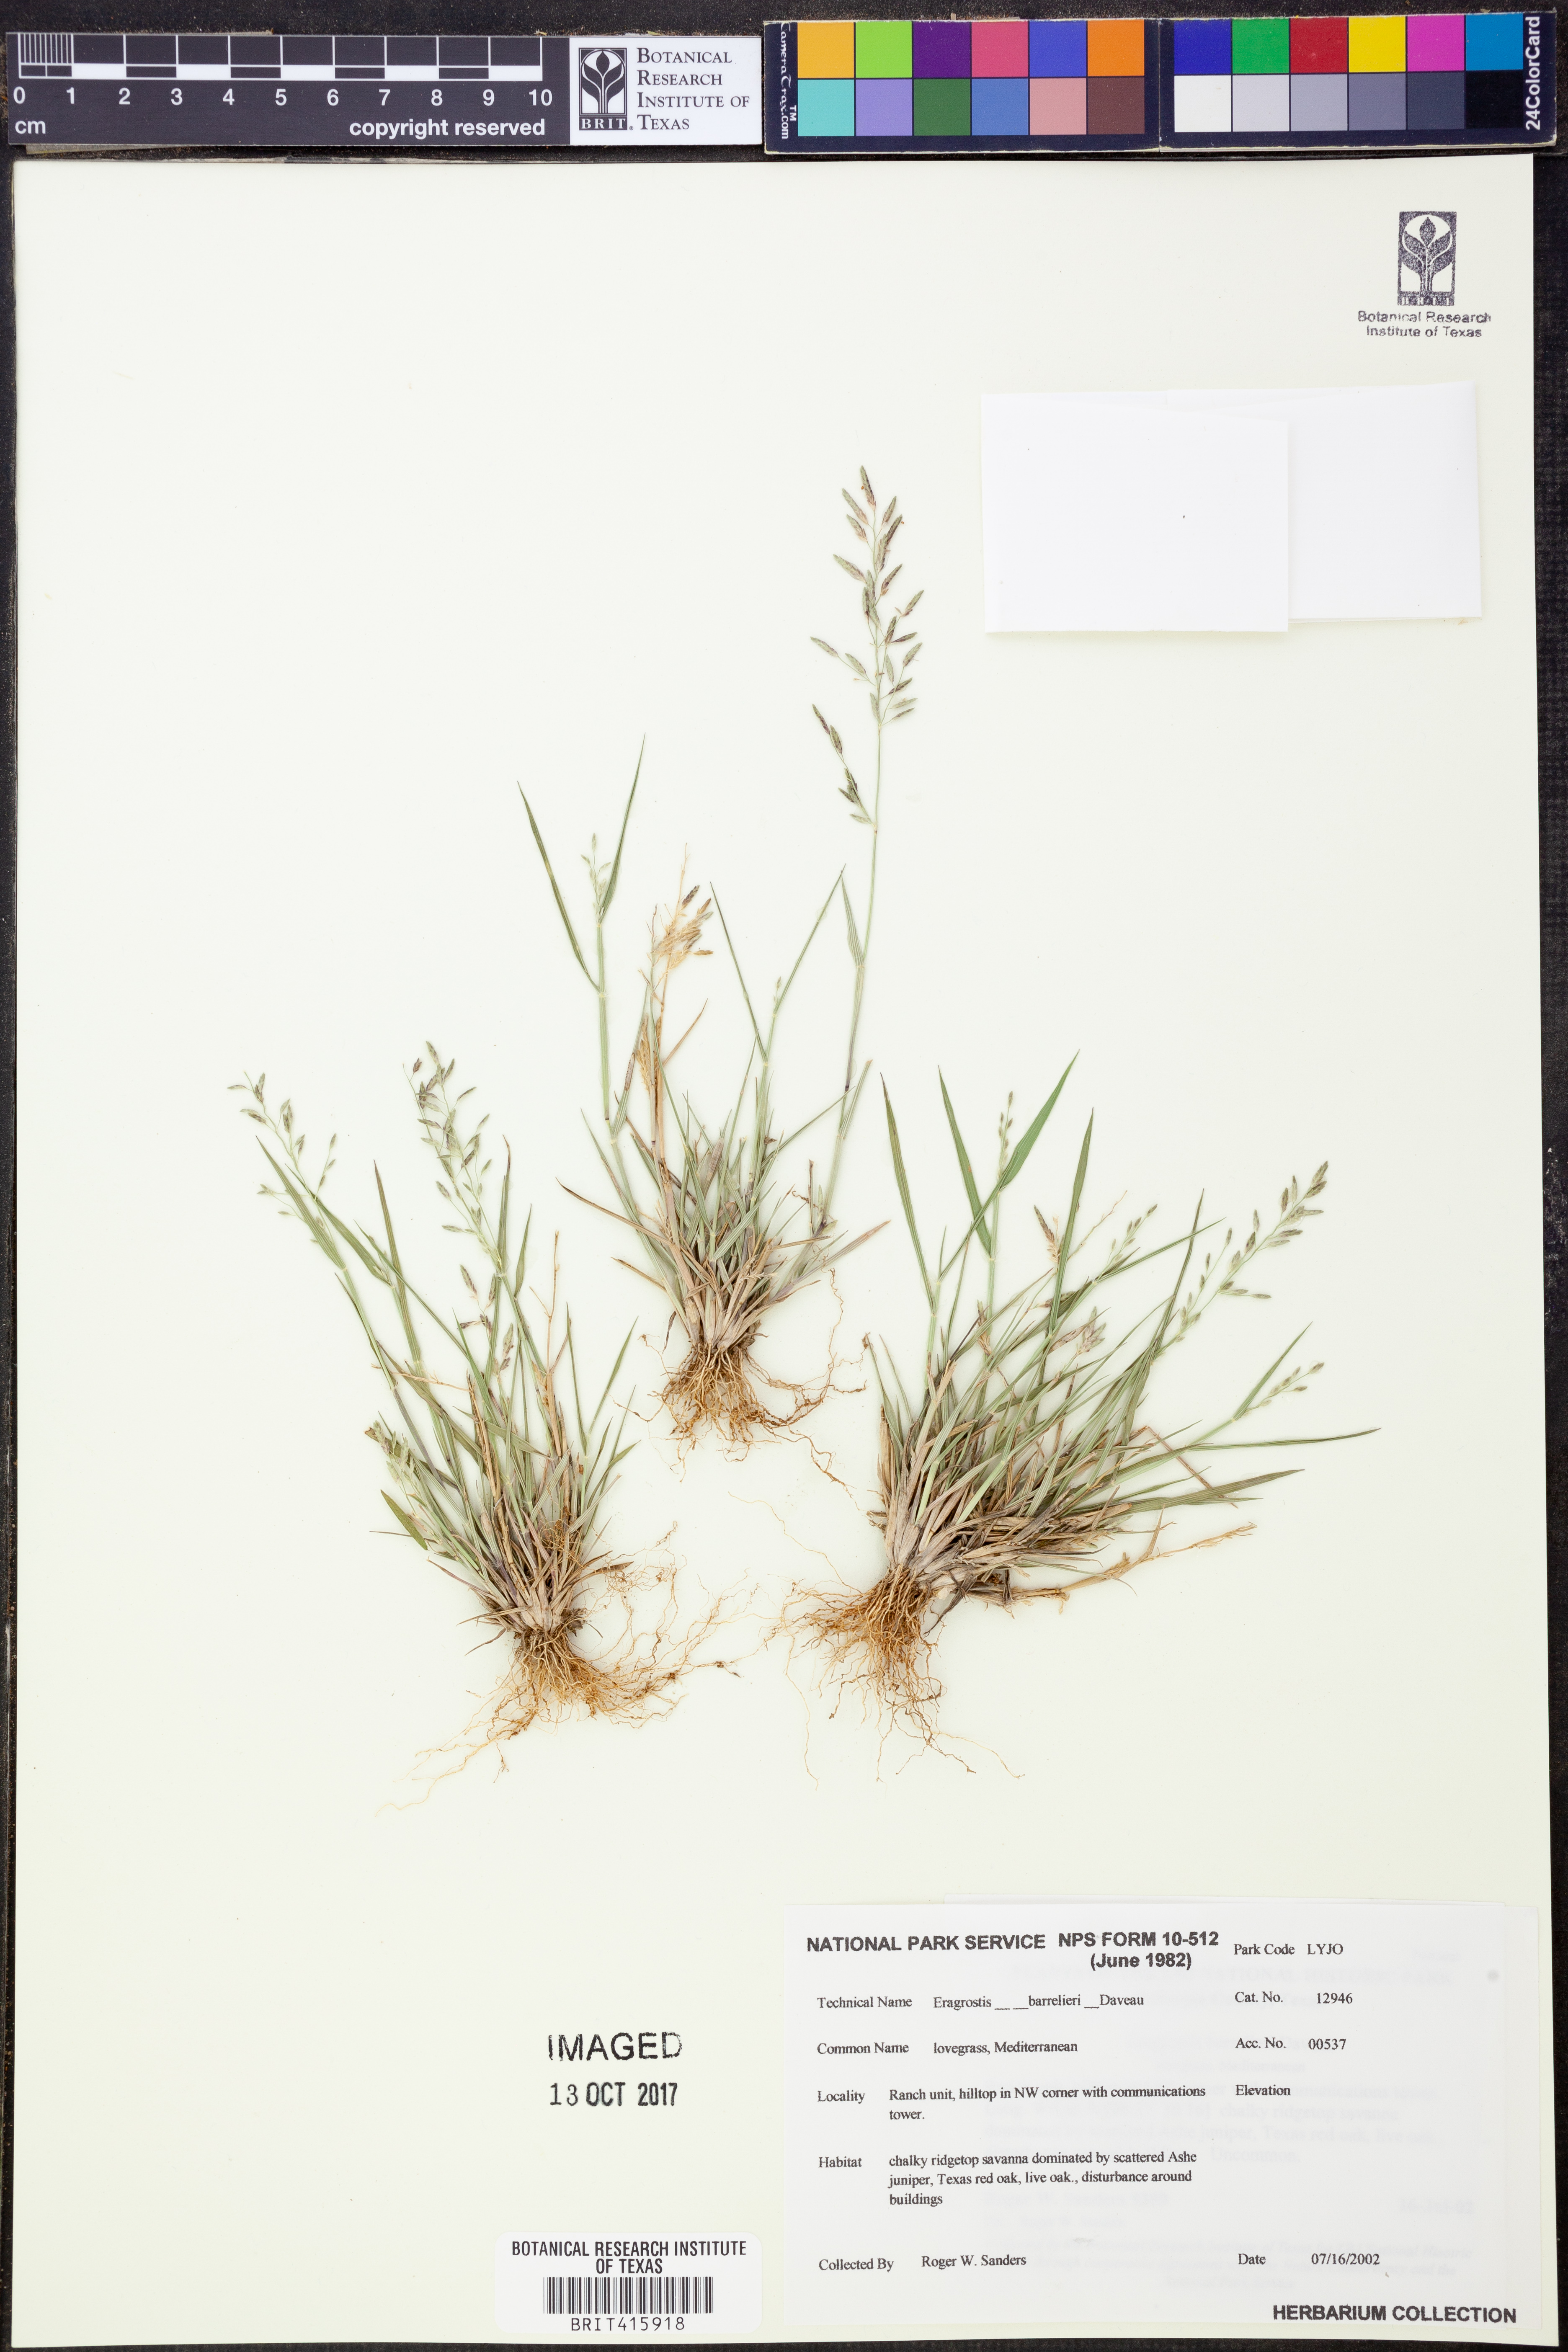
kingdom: Plantae
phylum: Tracheophyta
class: Liliopsida
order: Poales
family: Poaceae
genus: Eragrostis
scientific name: Eragrostis barrelieri
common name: Mediterranean lovegrass
